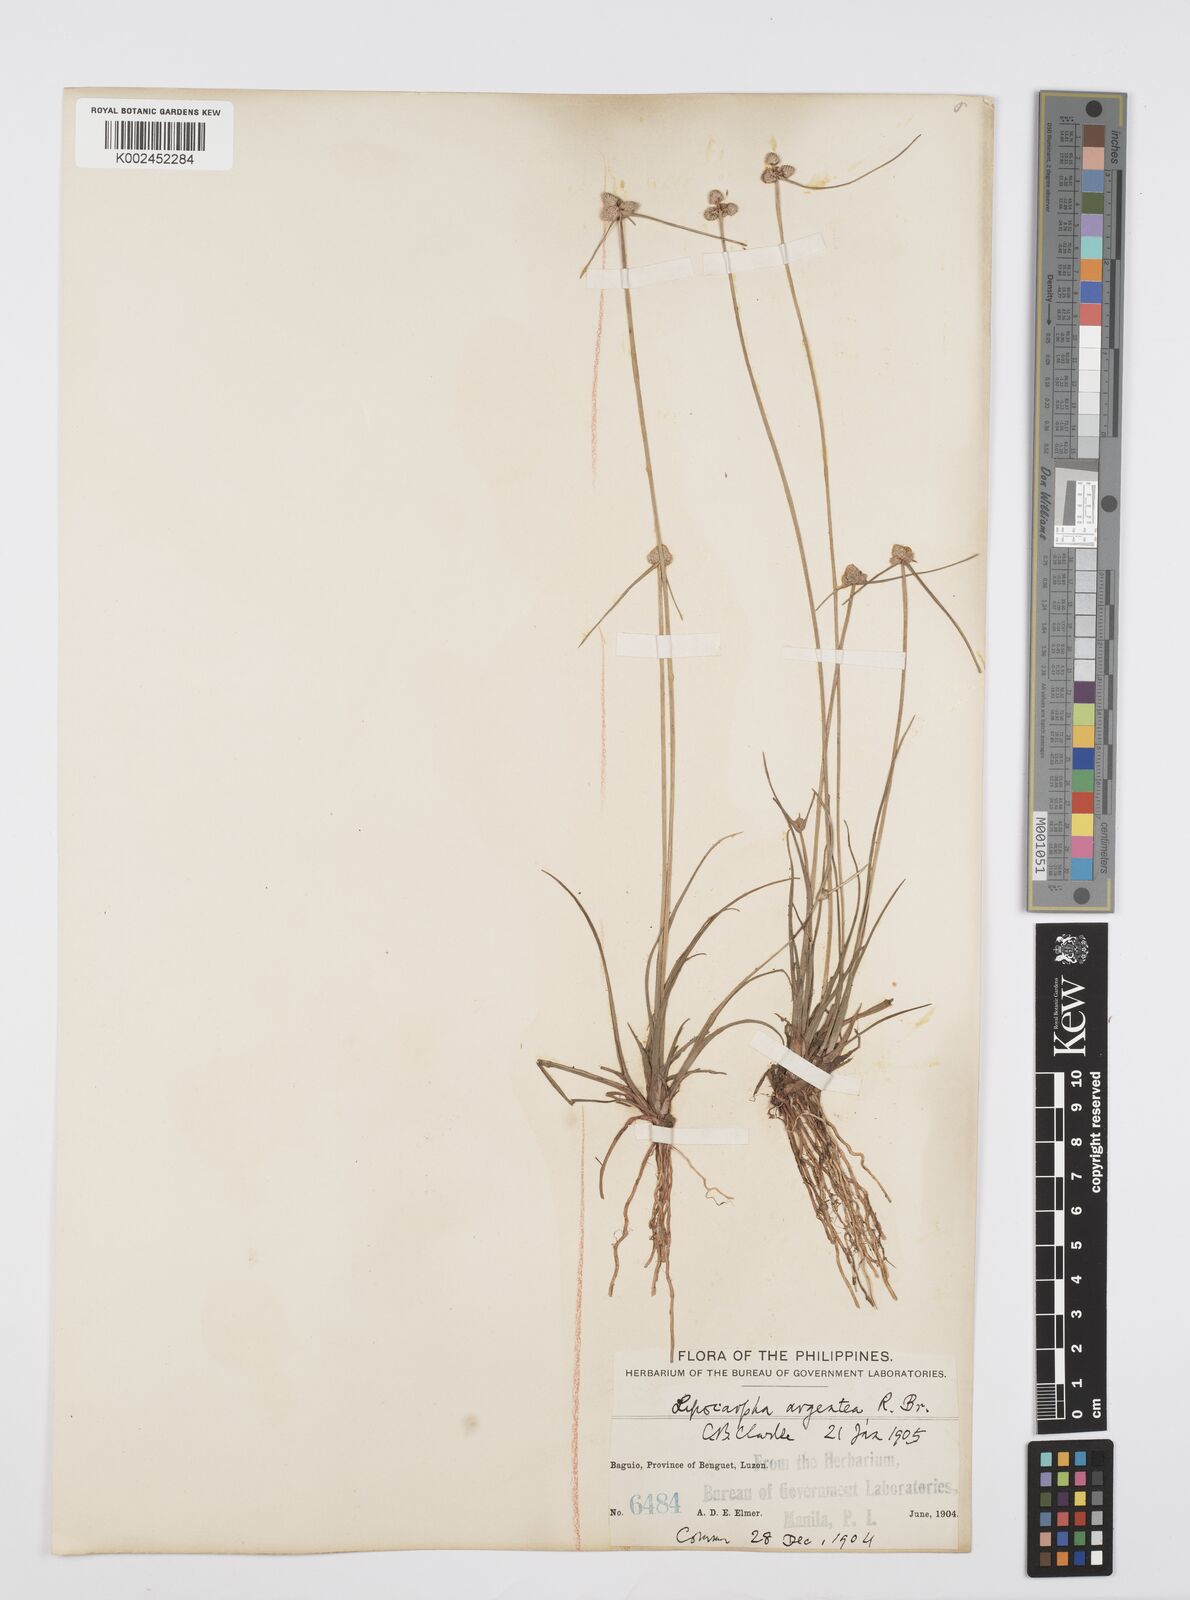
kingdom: Plantae
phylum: Tracheophyta
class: Liliopsida
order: Poales
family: Cyperaceae
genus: Cyperus
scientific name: Cyperus albescens
